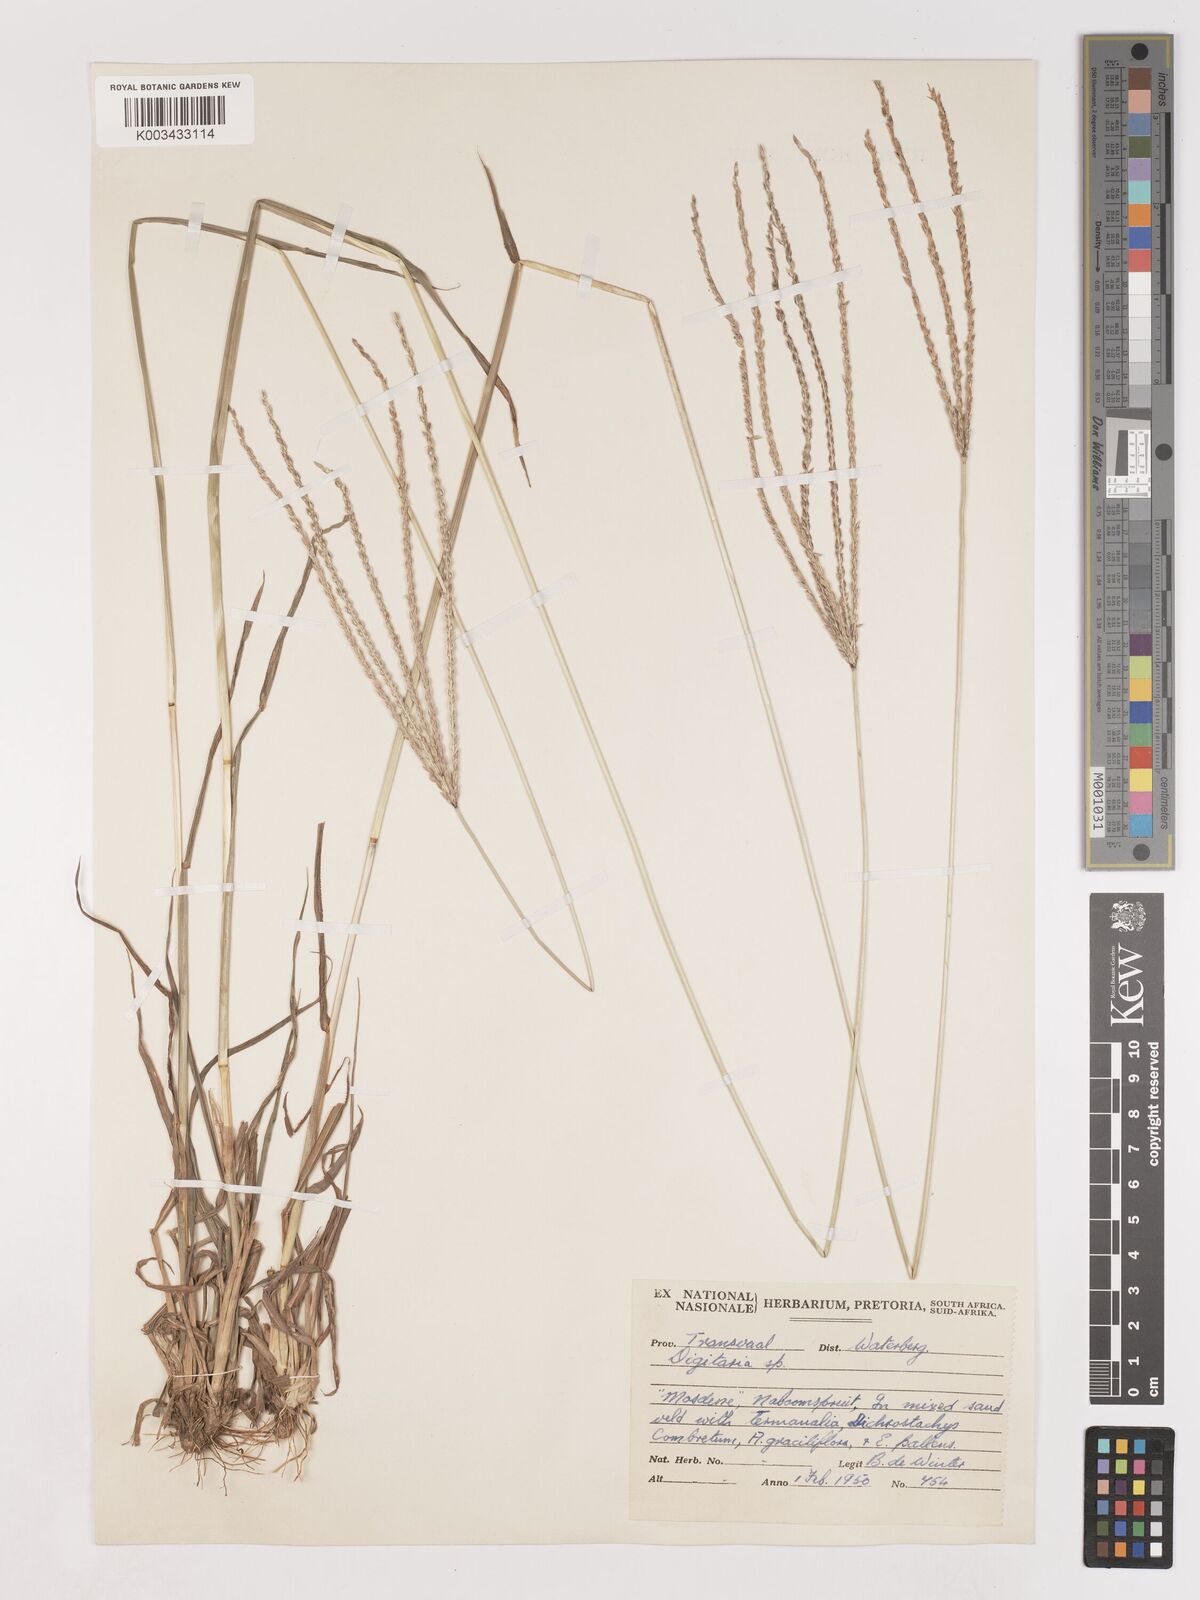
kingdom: Plantae
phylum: Tracheophyta
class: Liliopsida
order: Poales
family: Poaceae
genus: Digitaria
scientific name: Digitaria milanjiana
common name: Madagascar crabgrass
